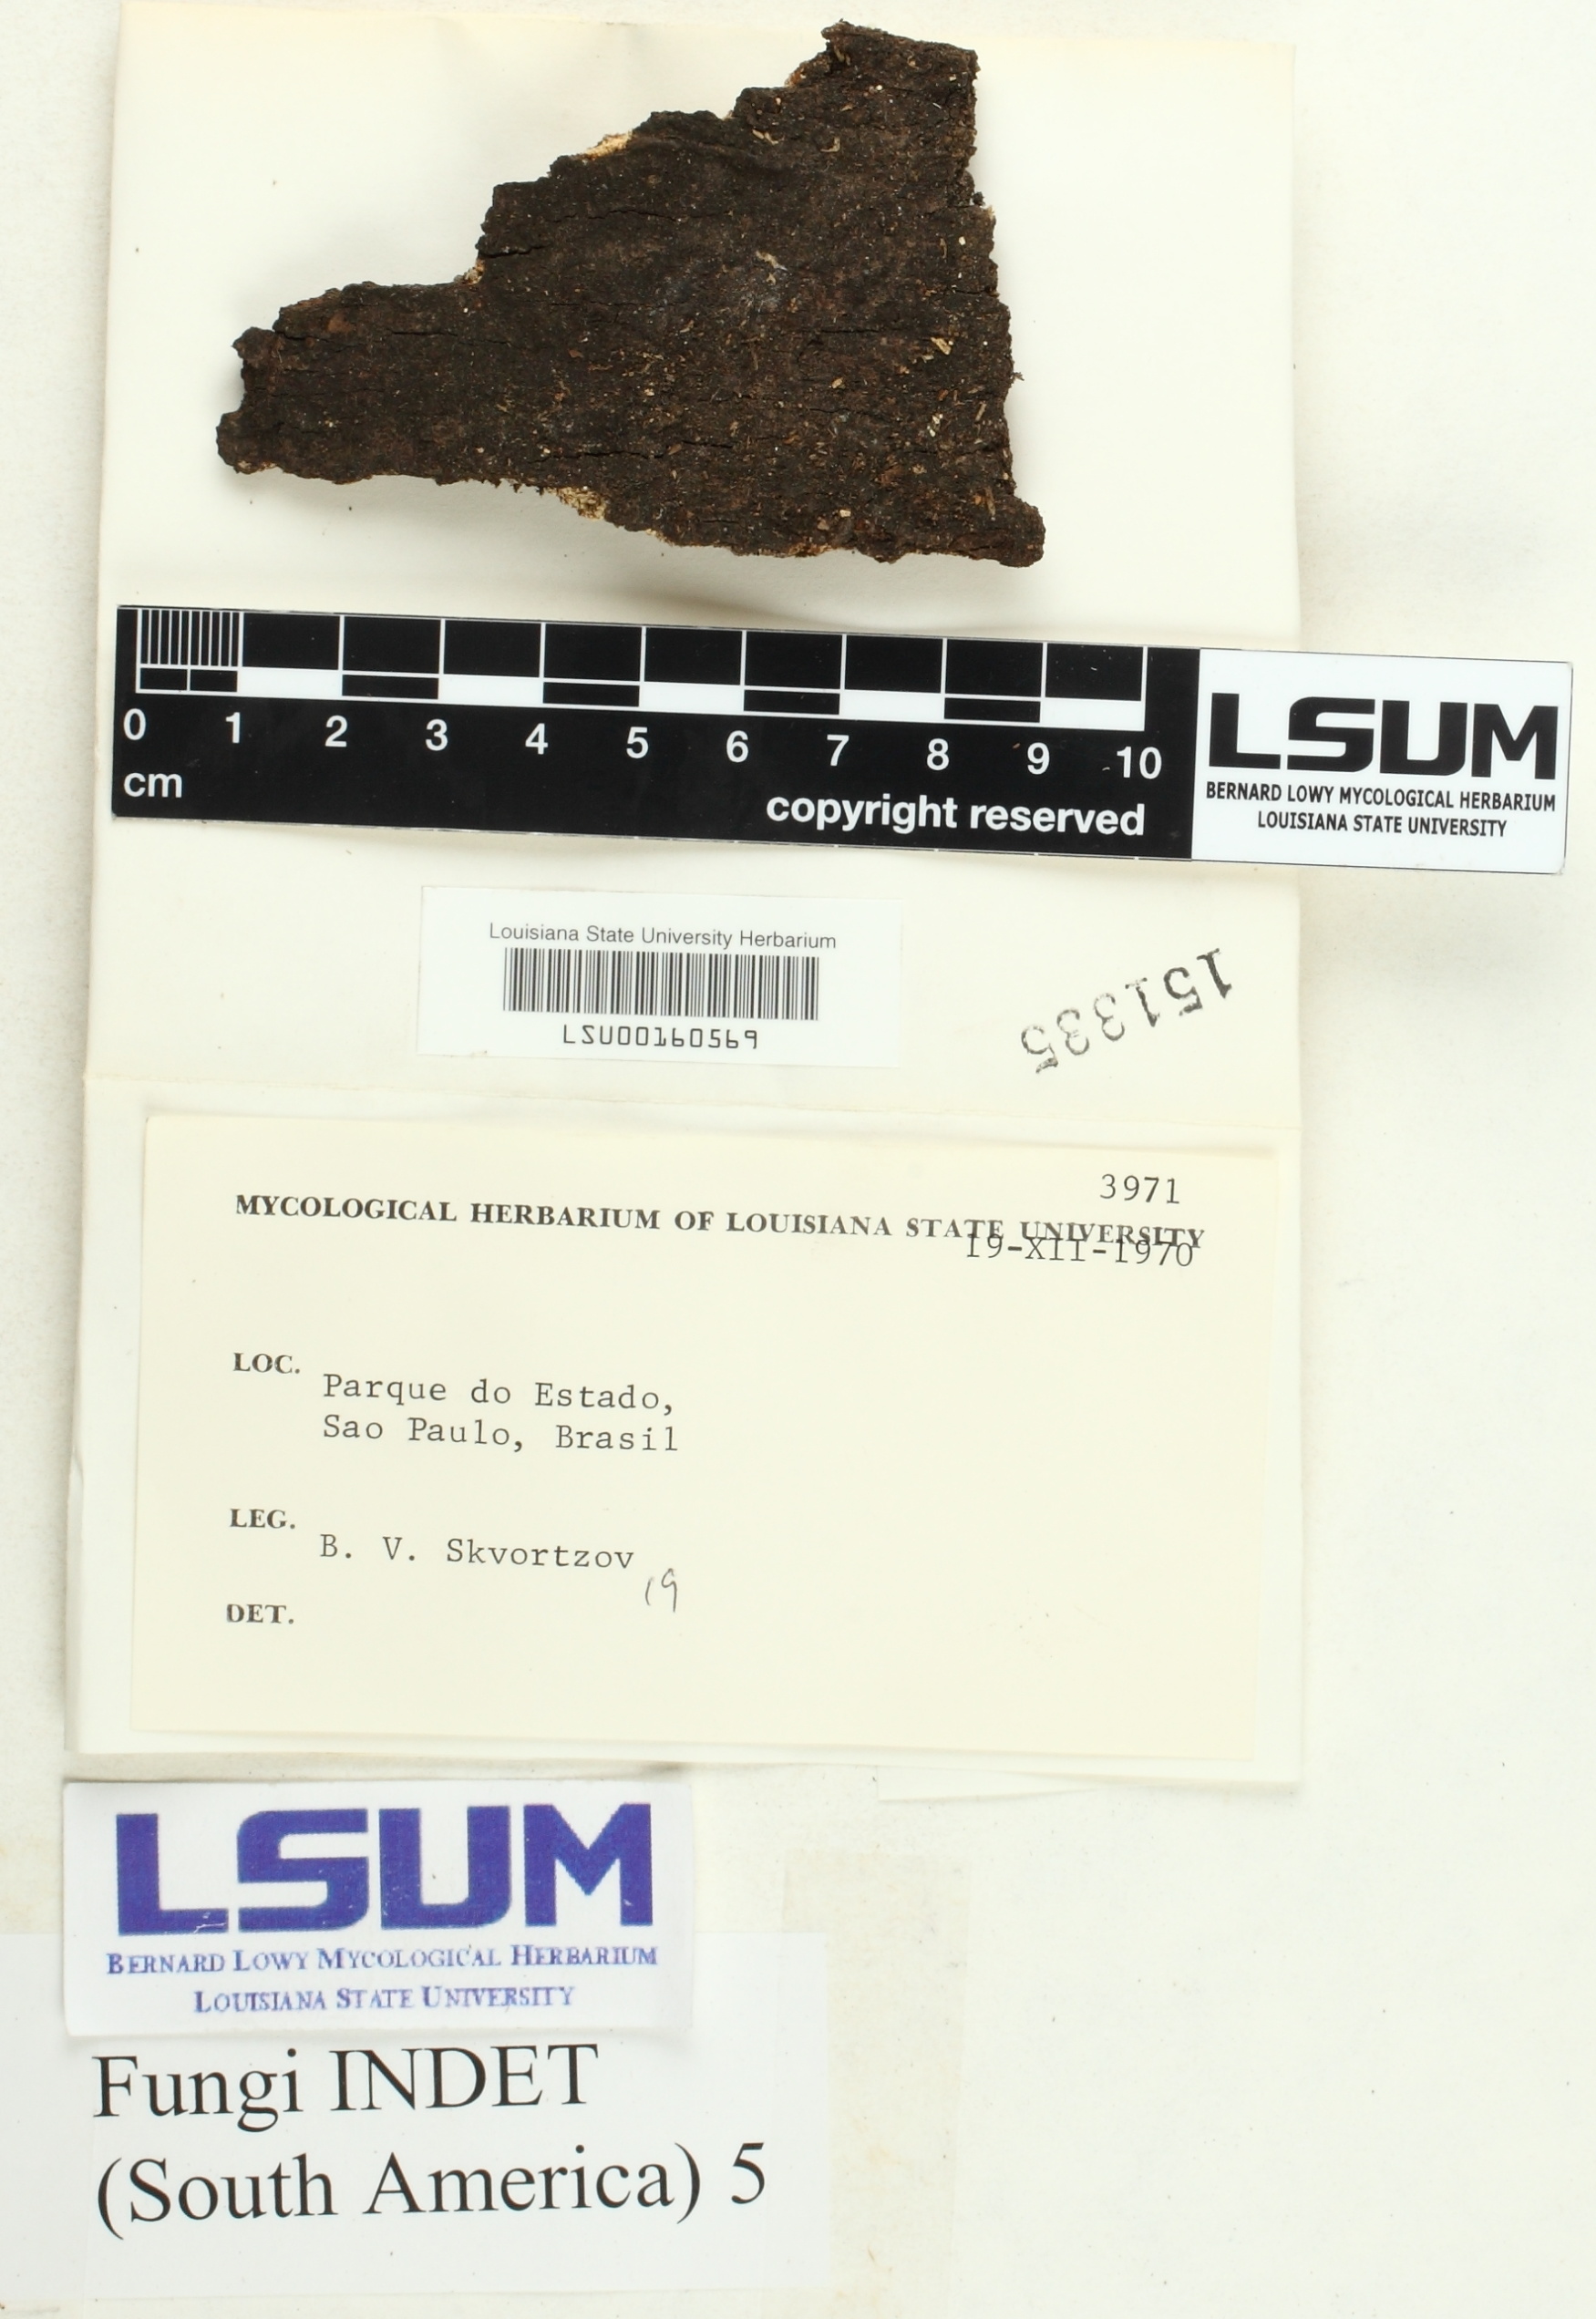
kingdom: Fungi
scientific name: Fungi
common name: Fungi
